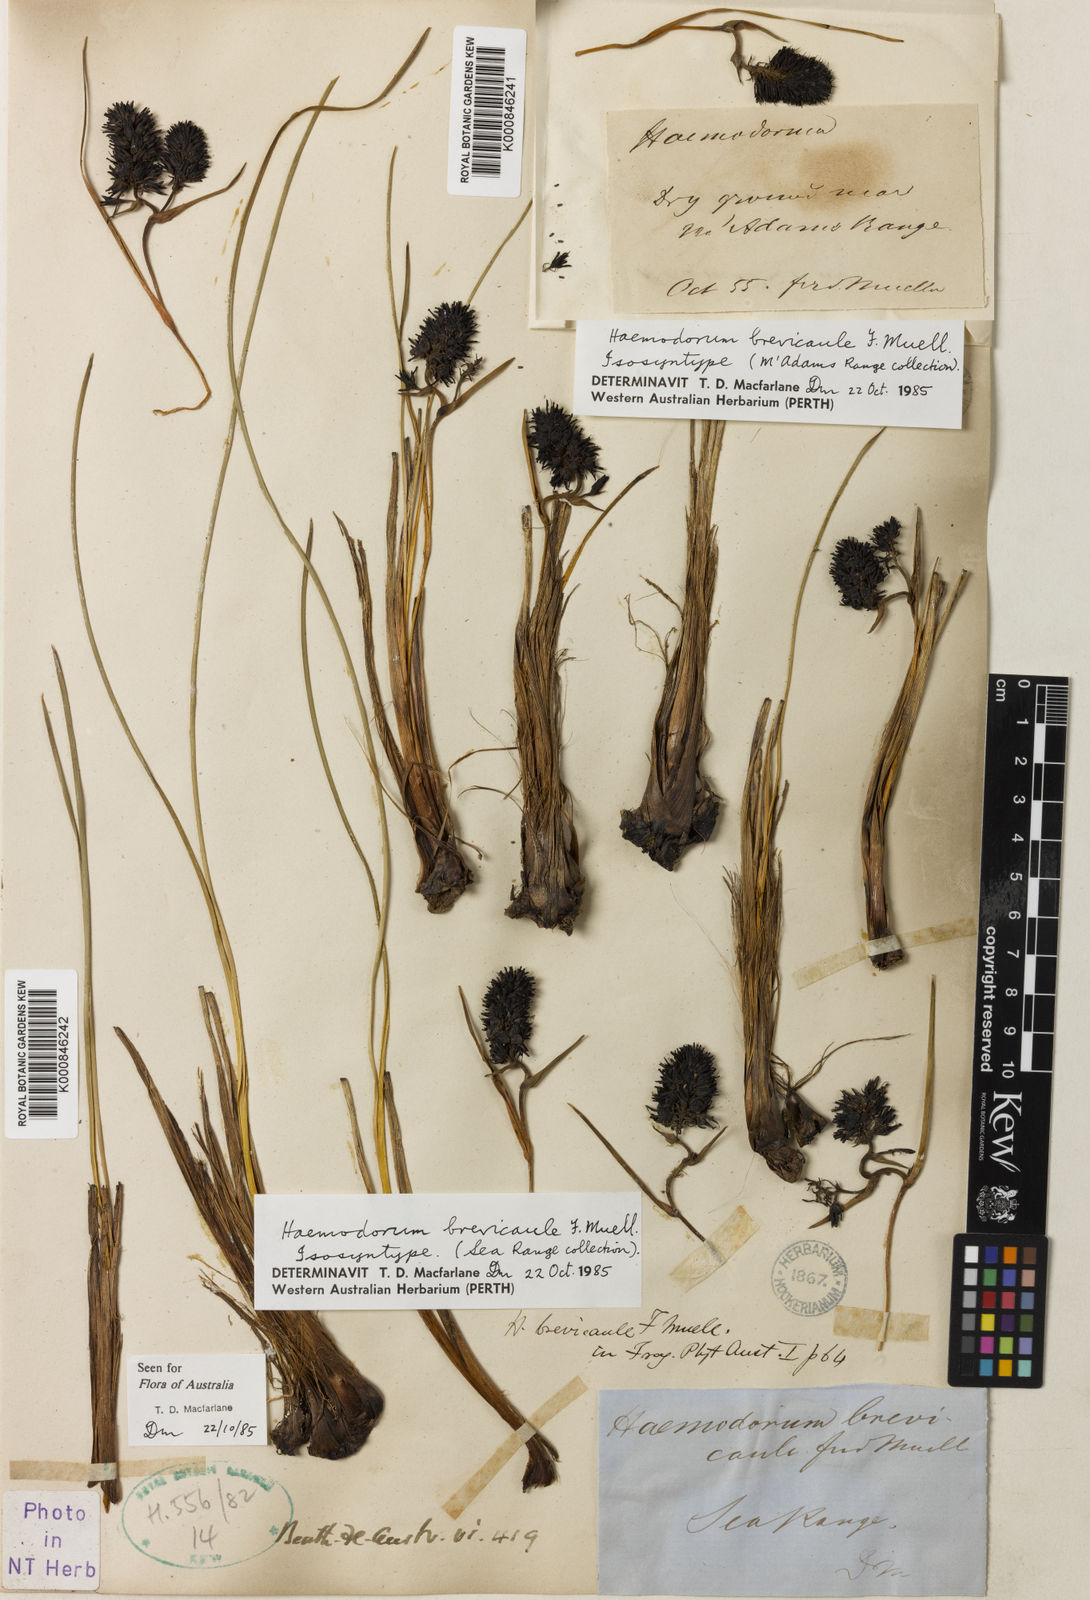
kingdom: Plantae
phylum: Tracheophyta
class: Liliopsida
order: Commelinales
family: Haemodoraceae
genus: Haemodorum
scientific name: Haemodorum brevicaule
